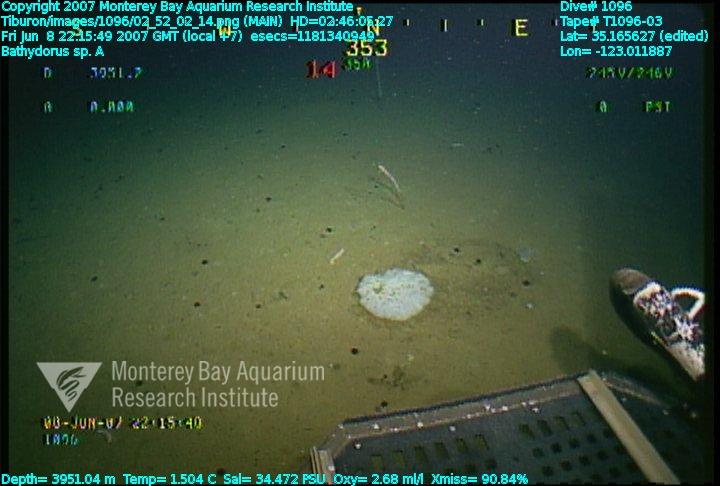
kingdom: Animalia
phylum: Porifera
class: Hexactinellida
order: Lyssacinosida
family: Rossellidae
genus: Bathydorus
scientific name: Bathydorus laniger
